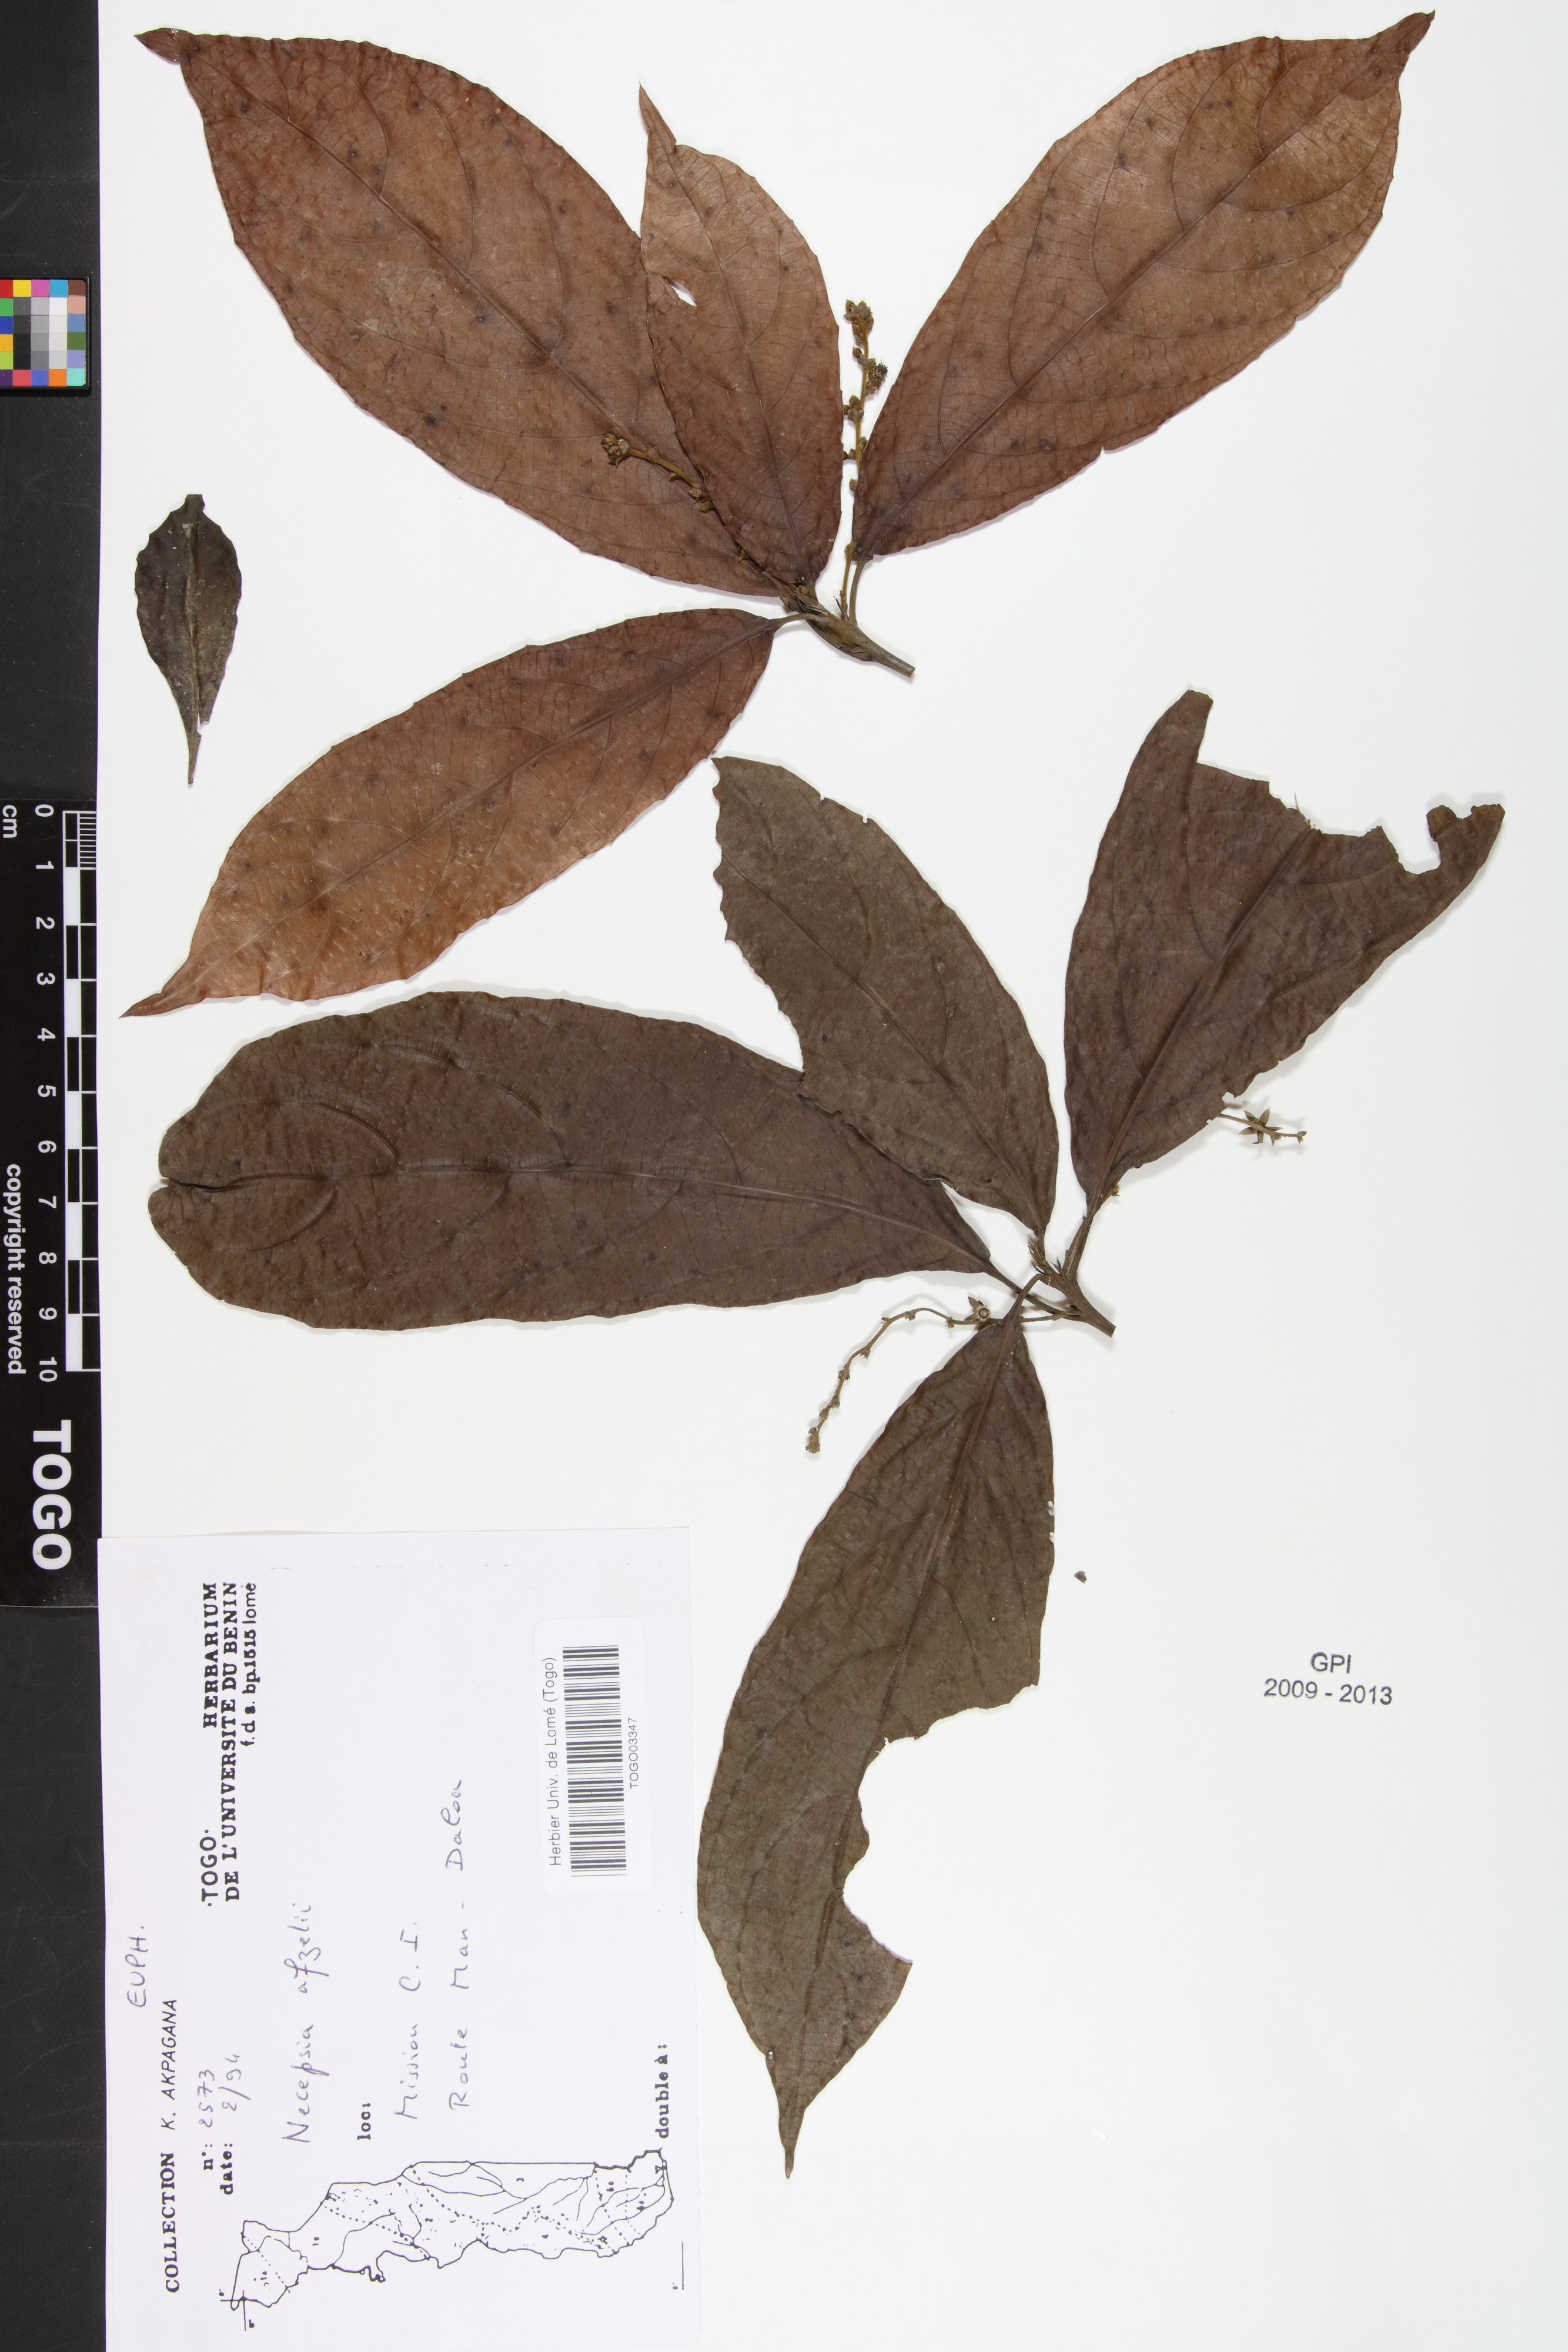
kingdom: Plantae
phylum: Tracheophyta
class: Magnoliopsida
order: Malpighiales
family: Euphorbiaceae
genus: Necepsia
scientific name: Necepsia afzelii
